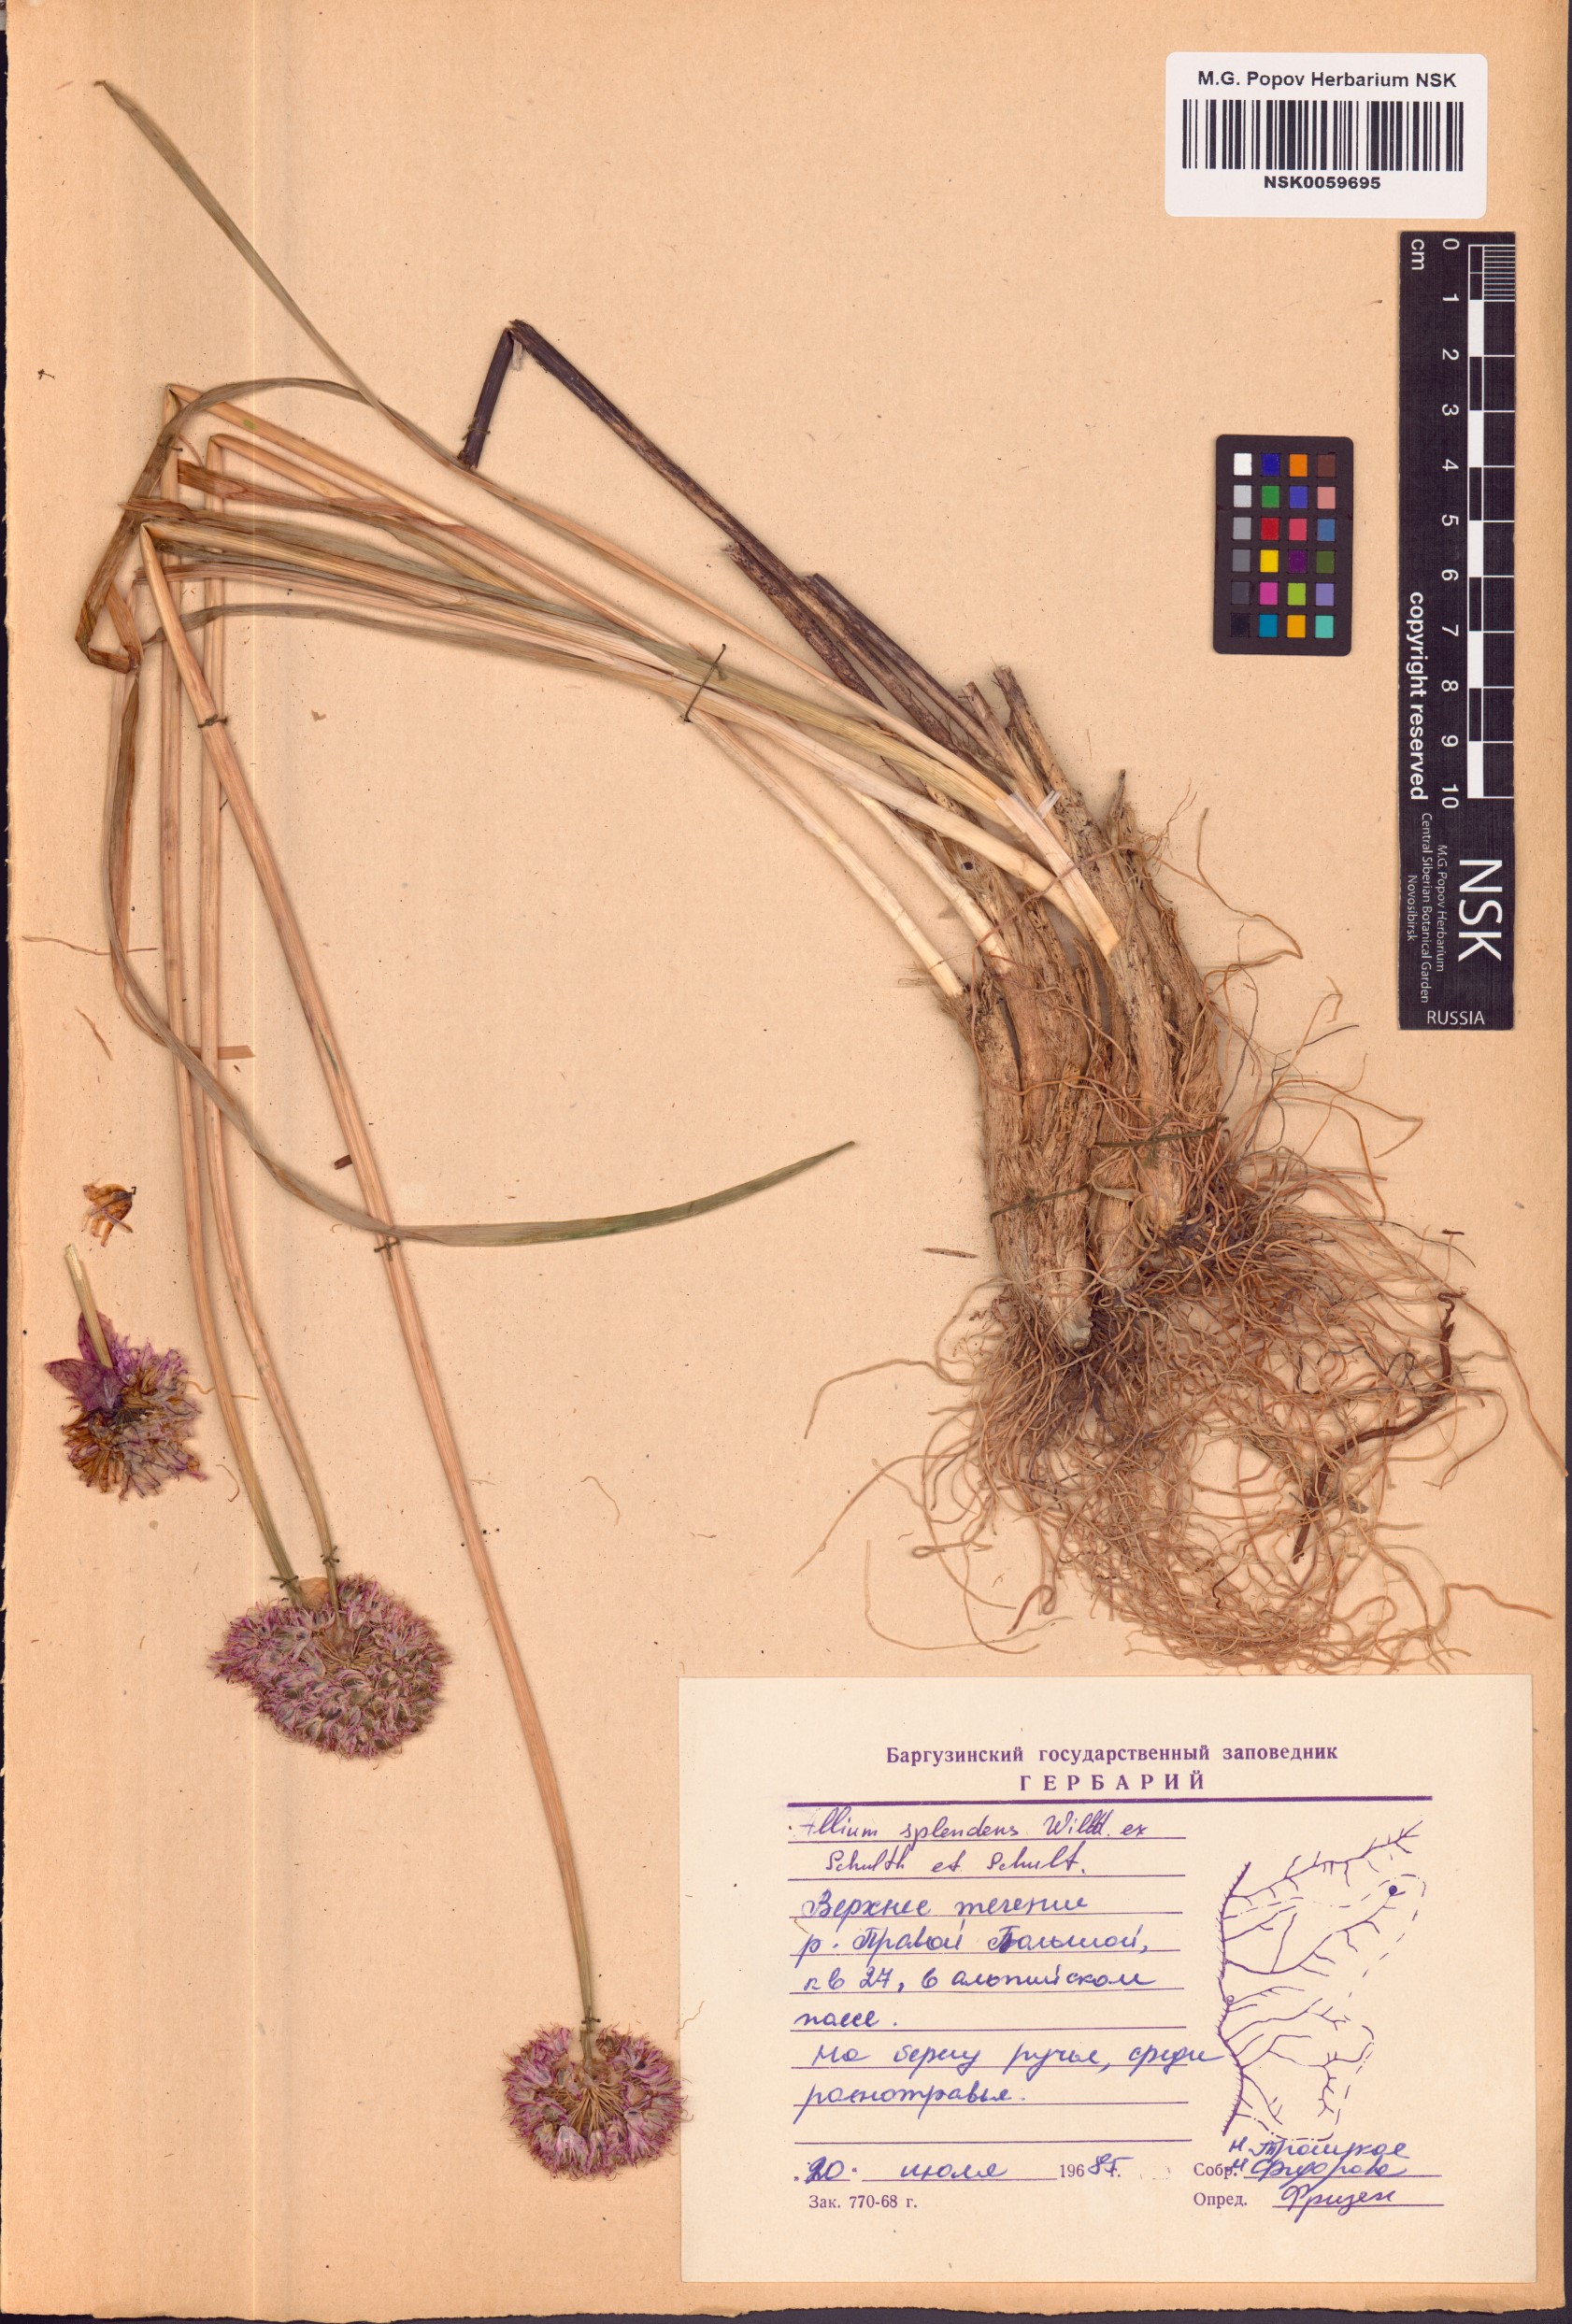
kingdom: Plantae
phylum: Tracheophyta
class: Liliopsida
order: Asparagales
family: Amaryllidaceae
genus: Allium
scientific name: Allium splendens
